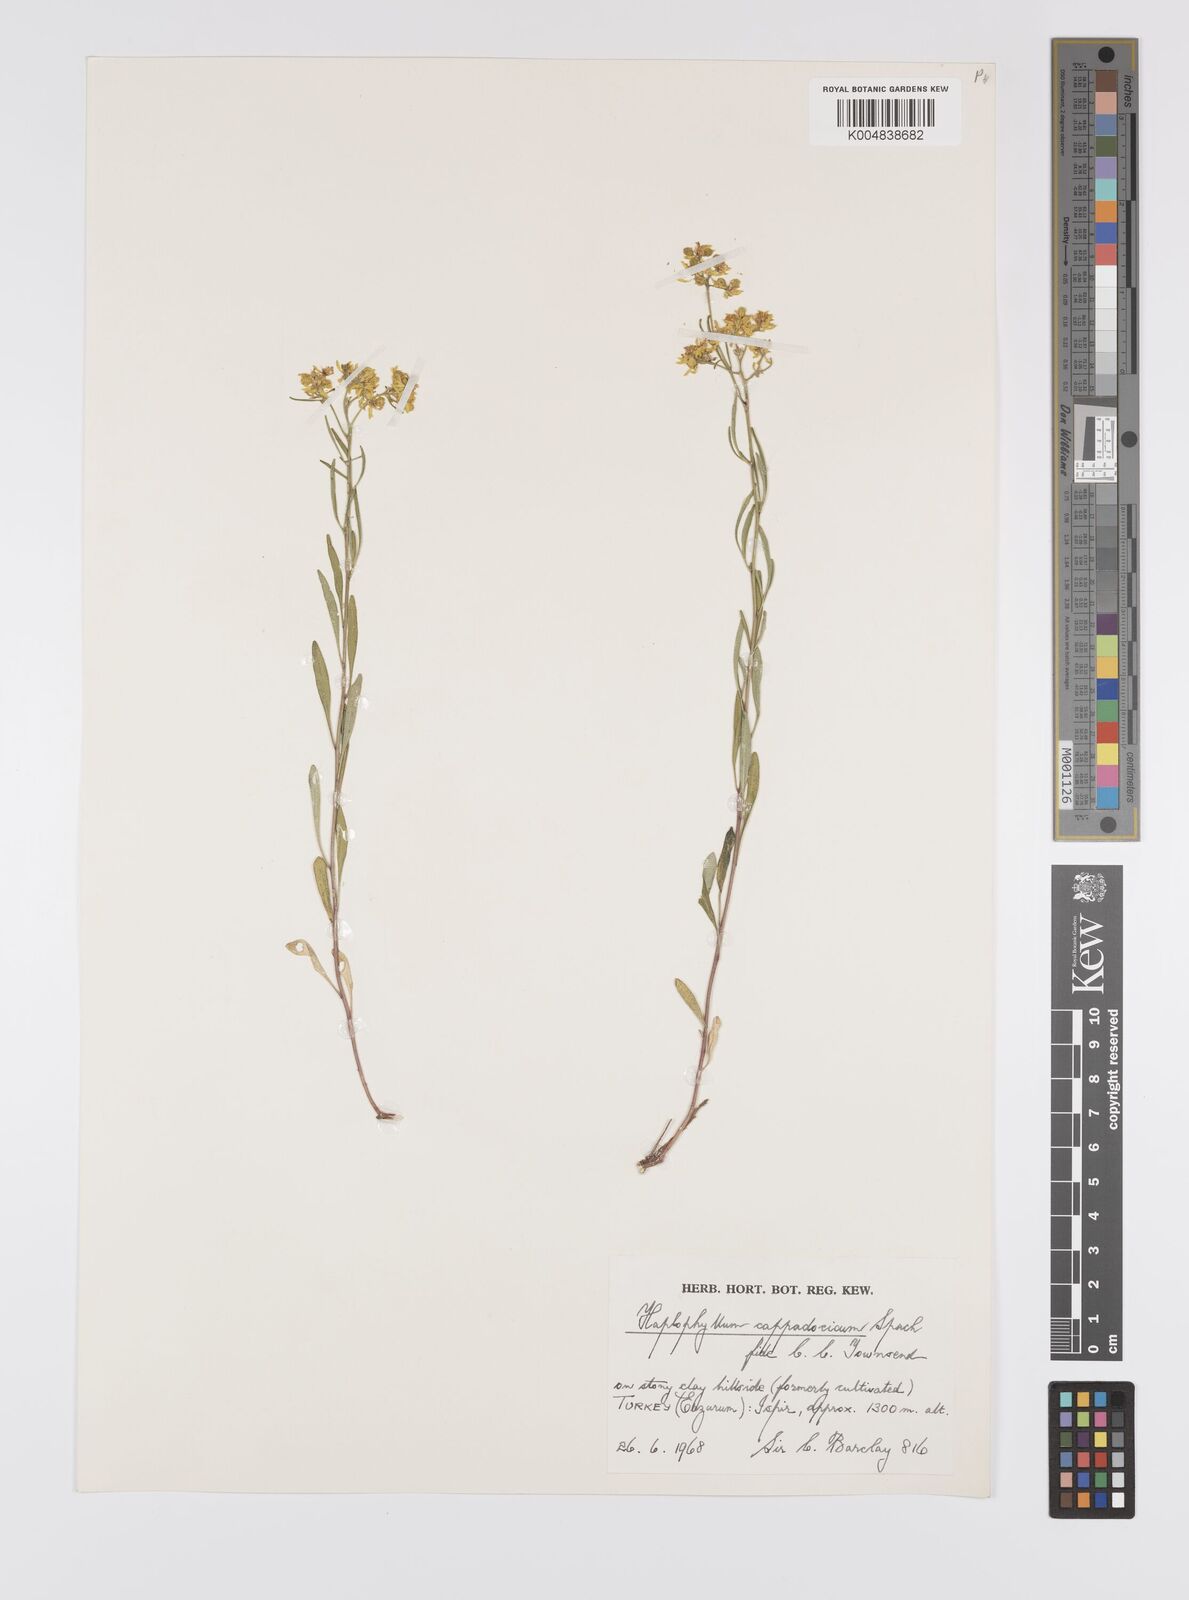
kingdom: Plantae
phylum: Tracheophyta
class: Magnoliopsida
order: Sapindales
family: Rutaceae
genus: Haplophyllum
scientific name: Haplophyllum cappadocicum
